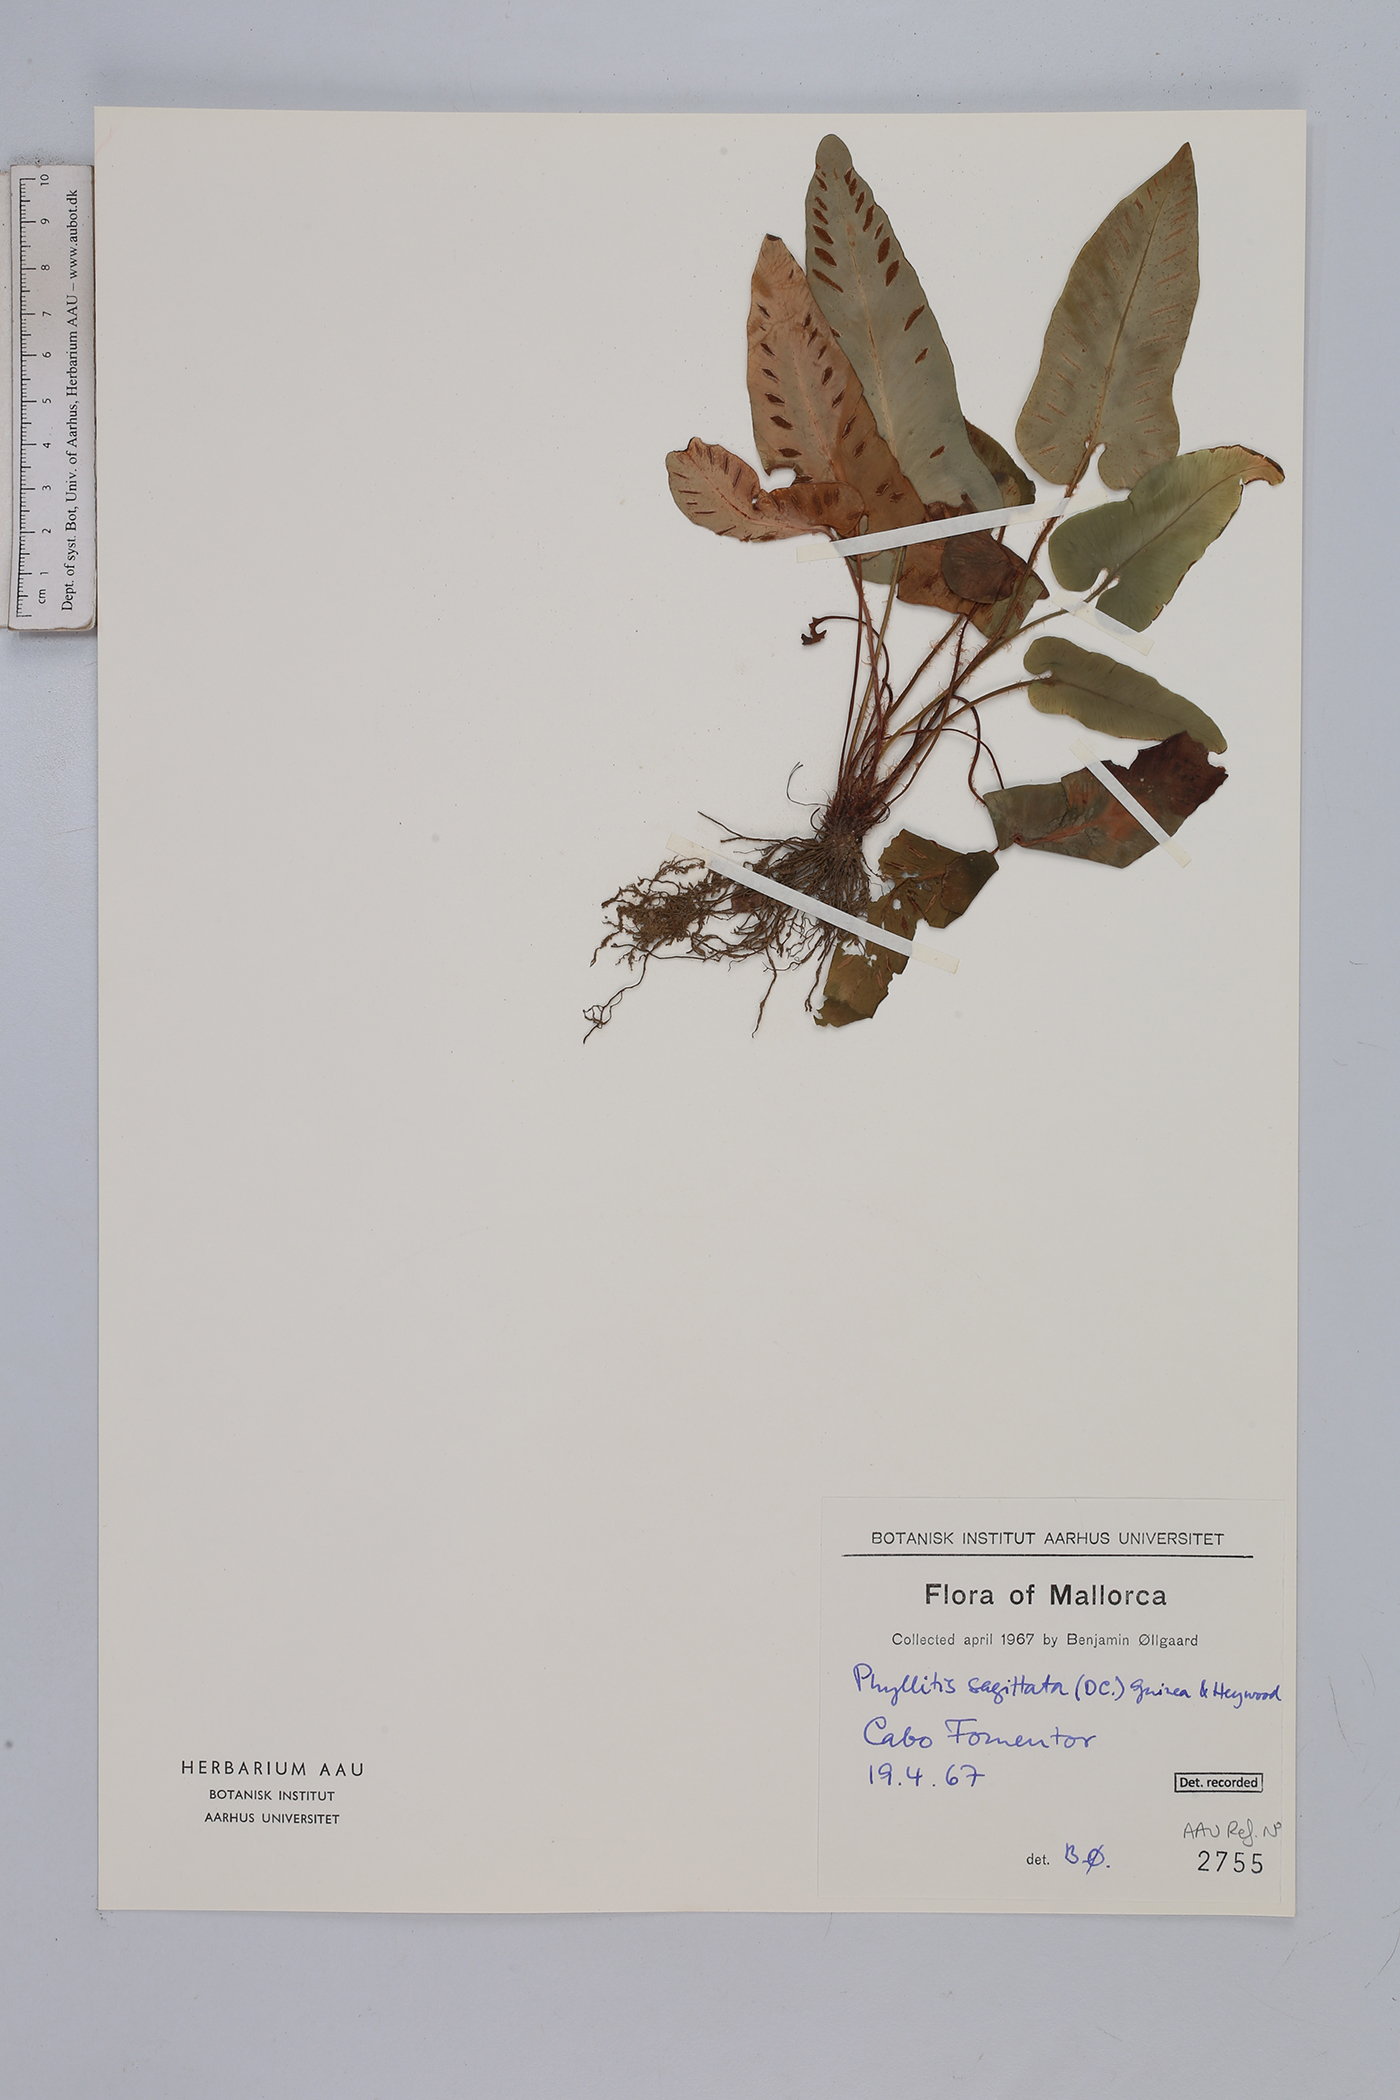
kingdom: Plantae
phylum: Tracheophyta
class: Polypodiopsida
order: Polypodiales
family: Aspleniaceae
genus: Asplenium
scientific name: Asplenium sagittatum
